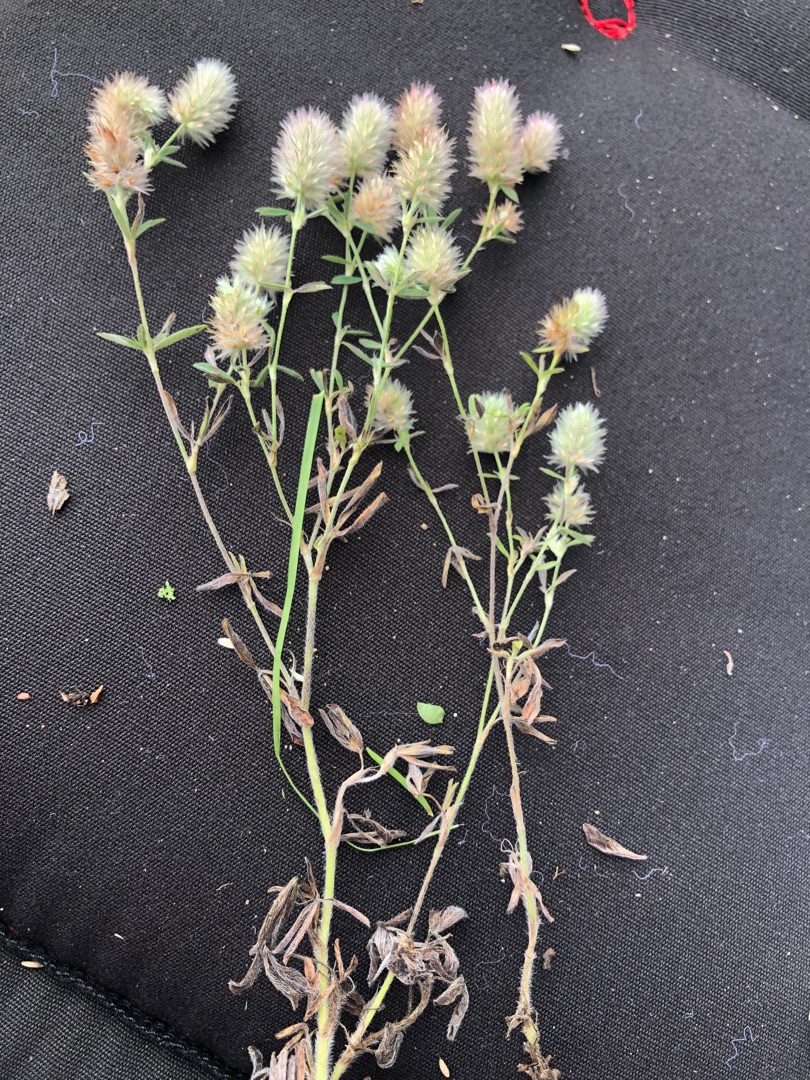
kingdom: Plantae
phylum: Tracheophyta
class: Magnoliopsida
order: Fabales
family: Fabaceae
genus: Trifolium
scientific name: Trifolium arvense
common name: Hare-kløver
